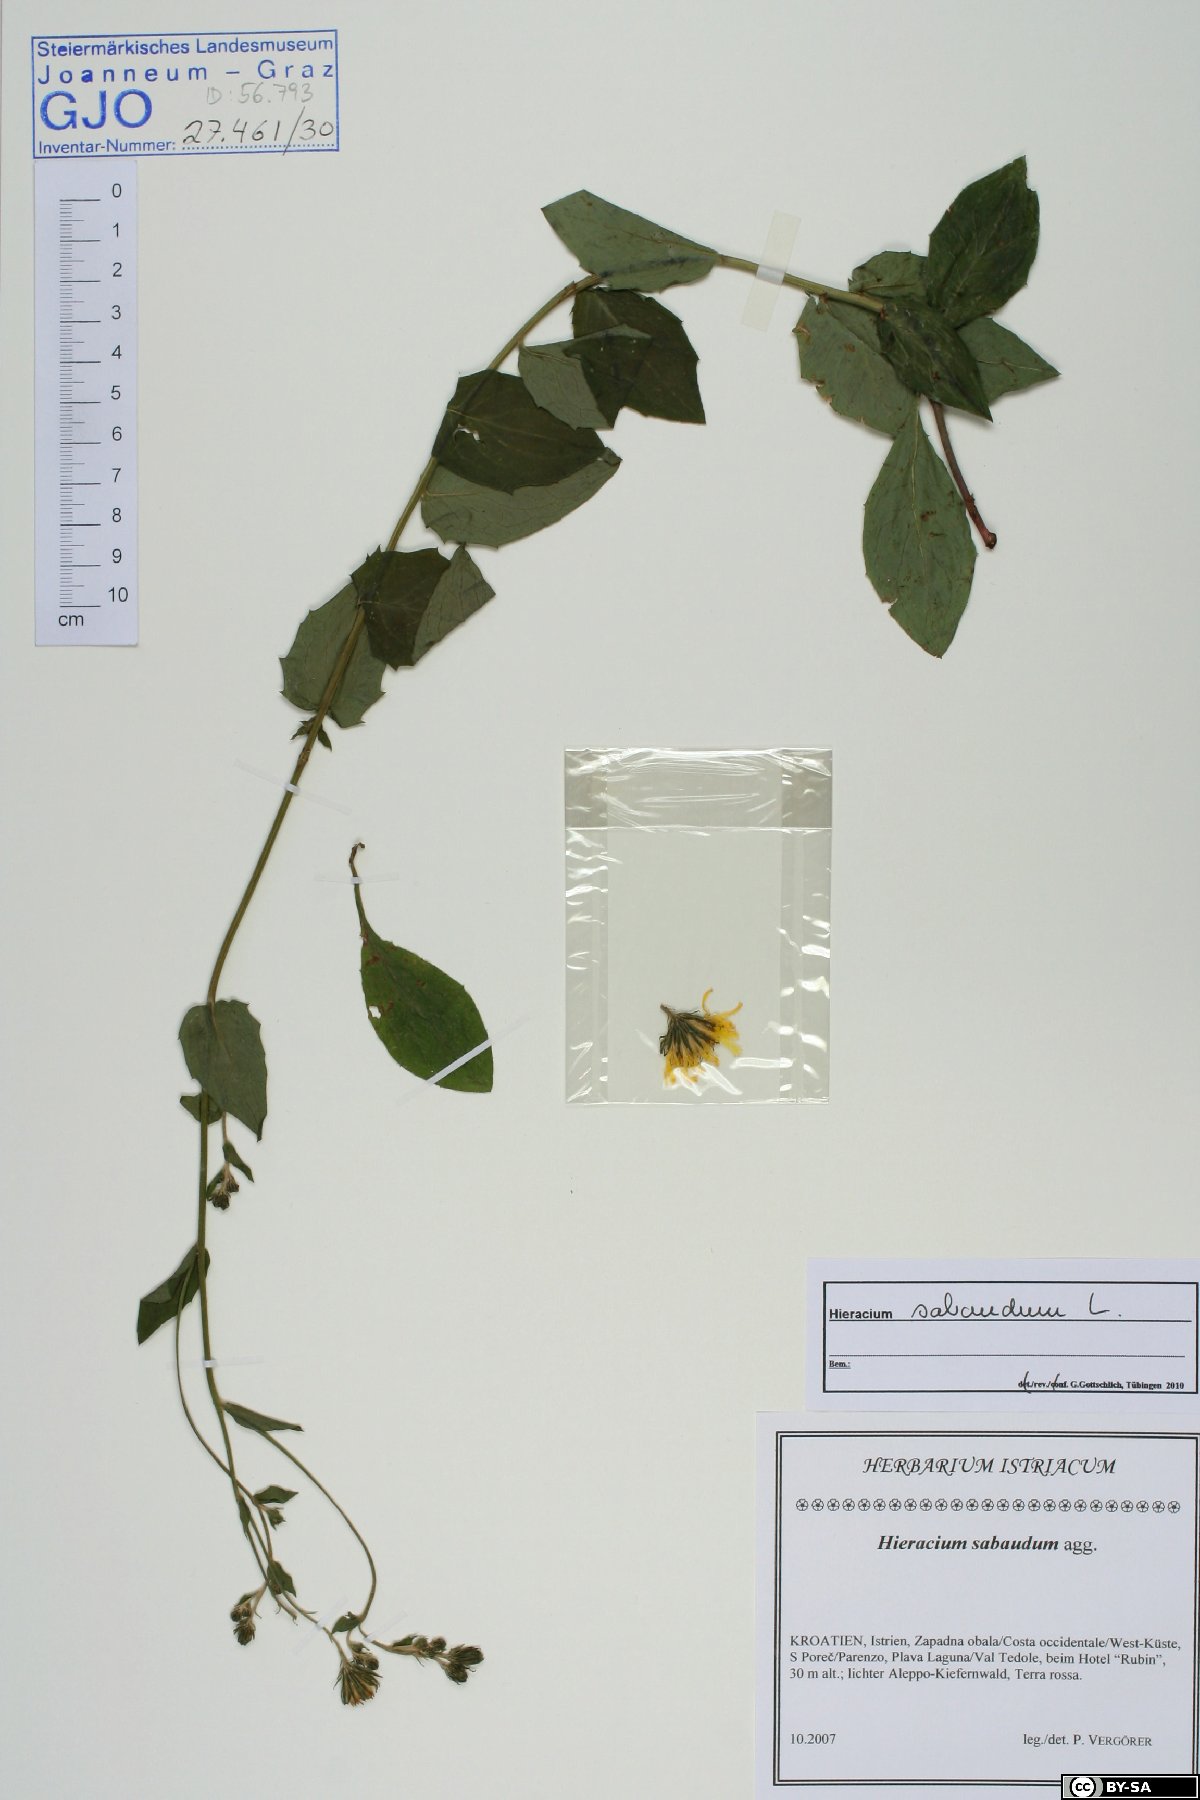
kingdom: Plantae
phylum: Tracheophyta
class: Magnoliopsida
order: Asterales
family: Asteraceae
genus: Hieracium
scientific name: Hieracium sabaudum
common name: New england hawkweed
